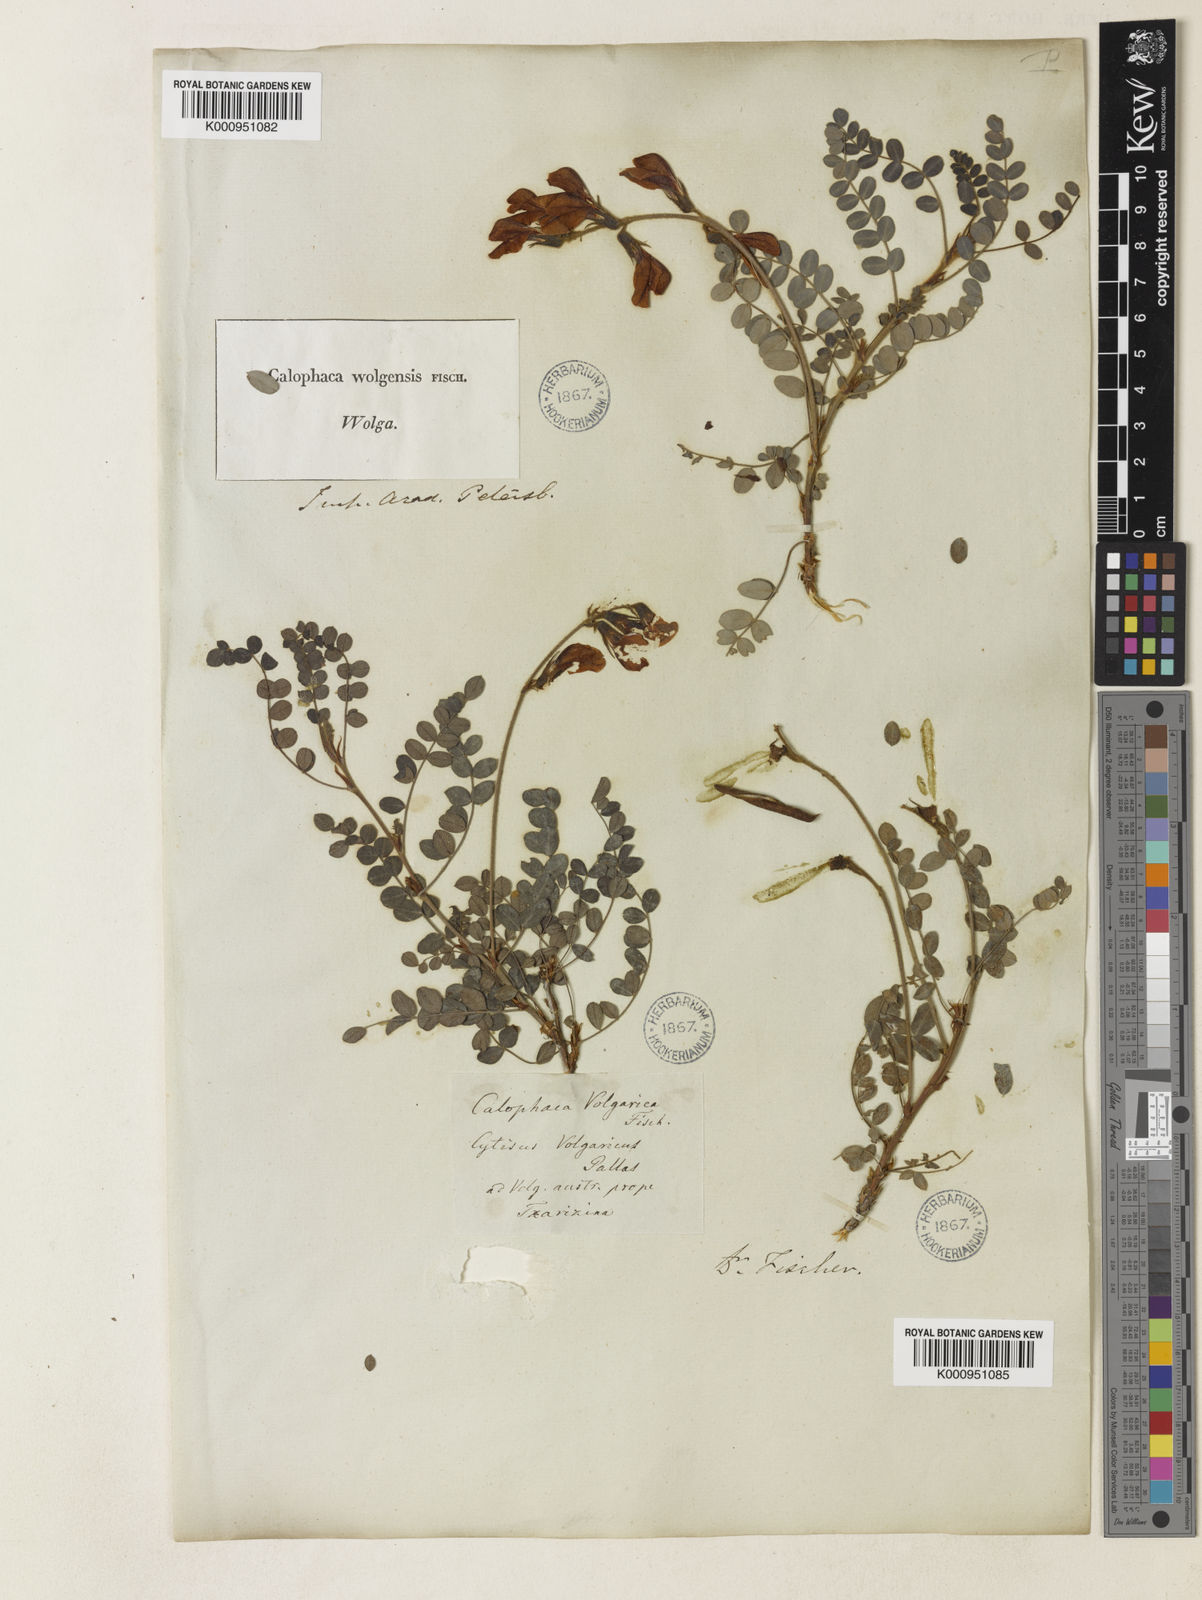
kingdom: Plantae
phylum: Tracheophyta
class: Magnoliopsida
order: Fabales
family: Fabaceae
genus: Calophaca
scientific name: Calophaca wolgarica
